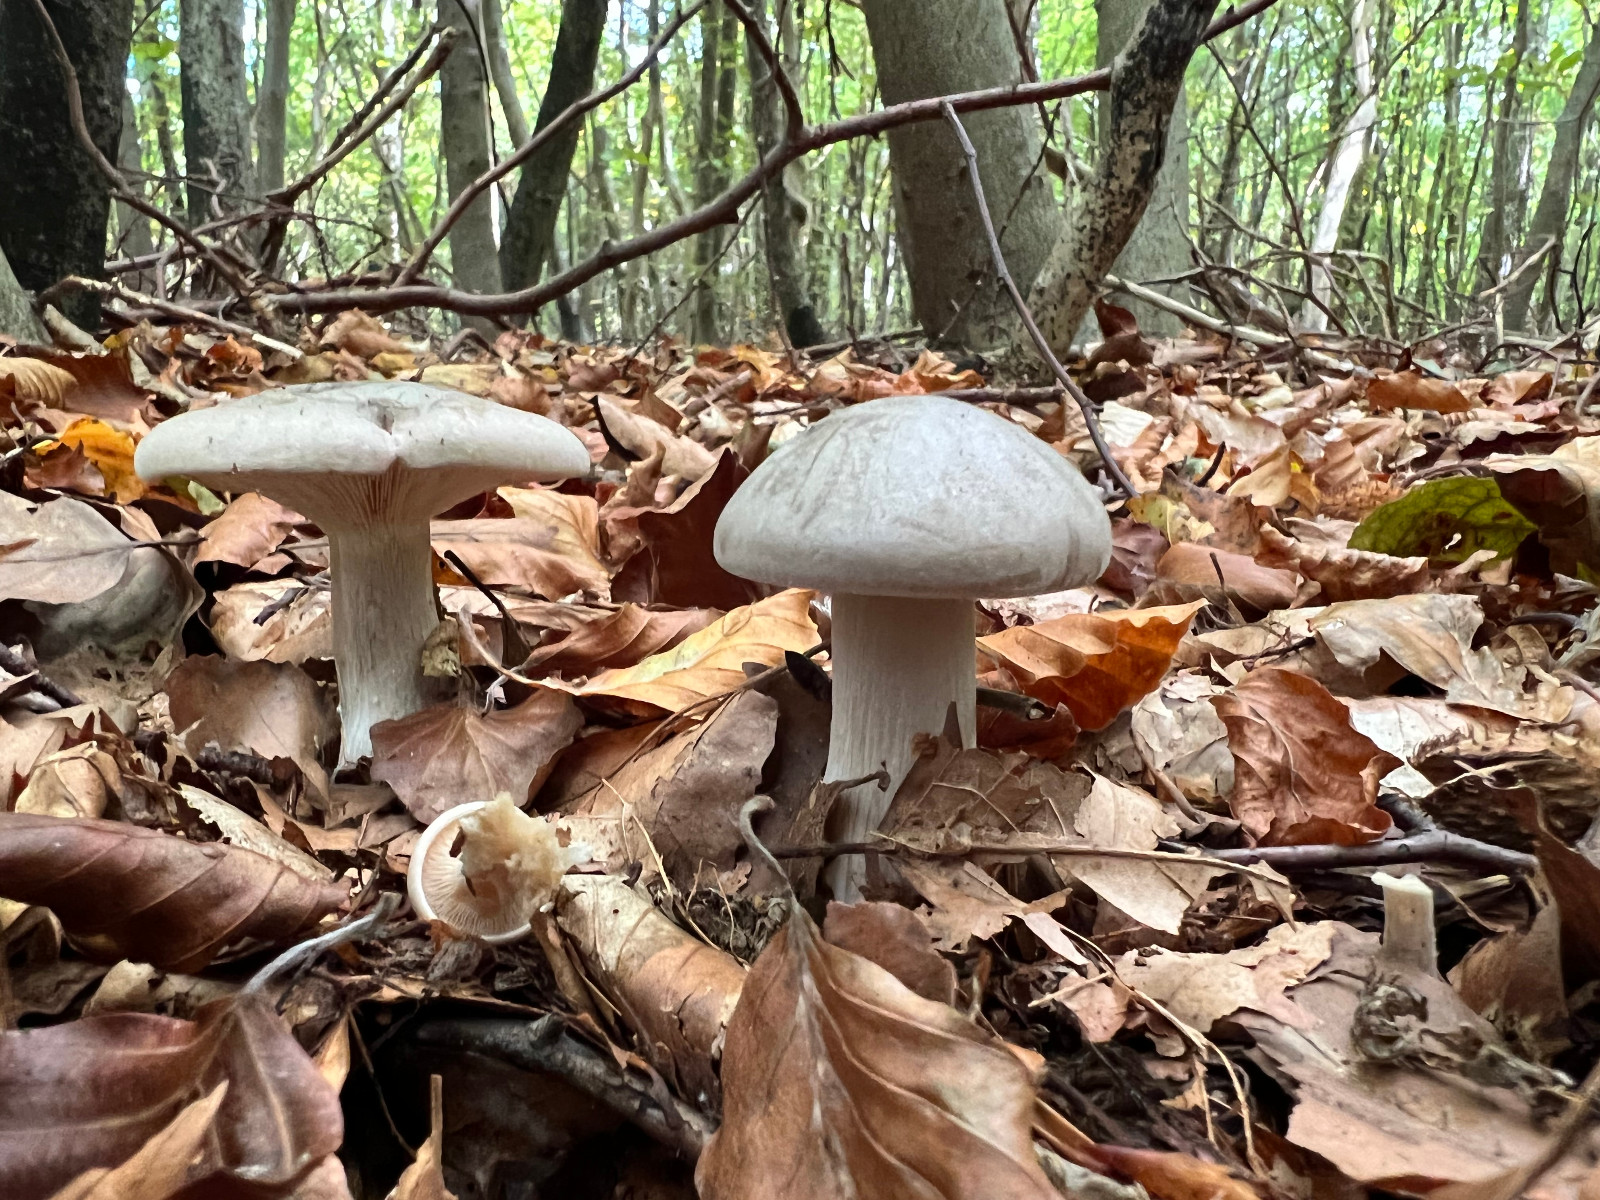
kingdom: Fungi
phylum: Basidiomycota
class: Agaricomycetes
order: Agaricales
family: Tricholomataceae
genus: Clitocybe
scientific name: Clitocybe nebularis
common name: tåge-tragthat
